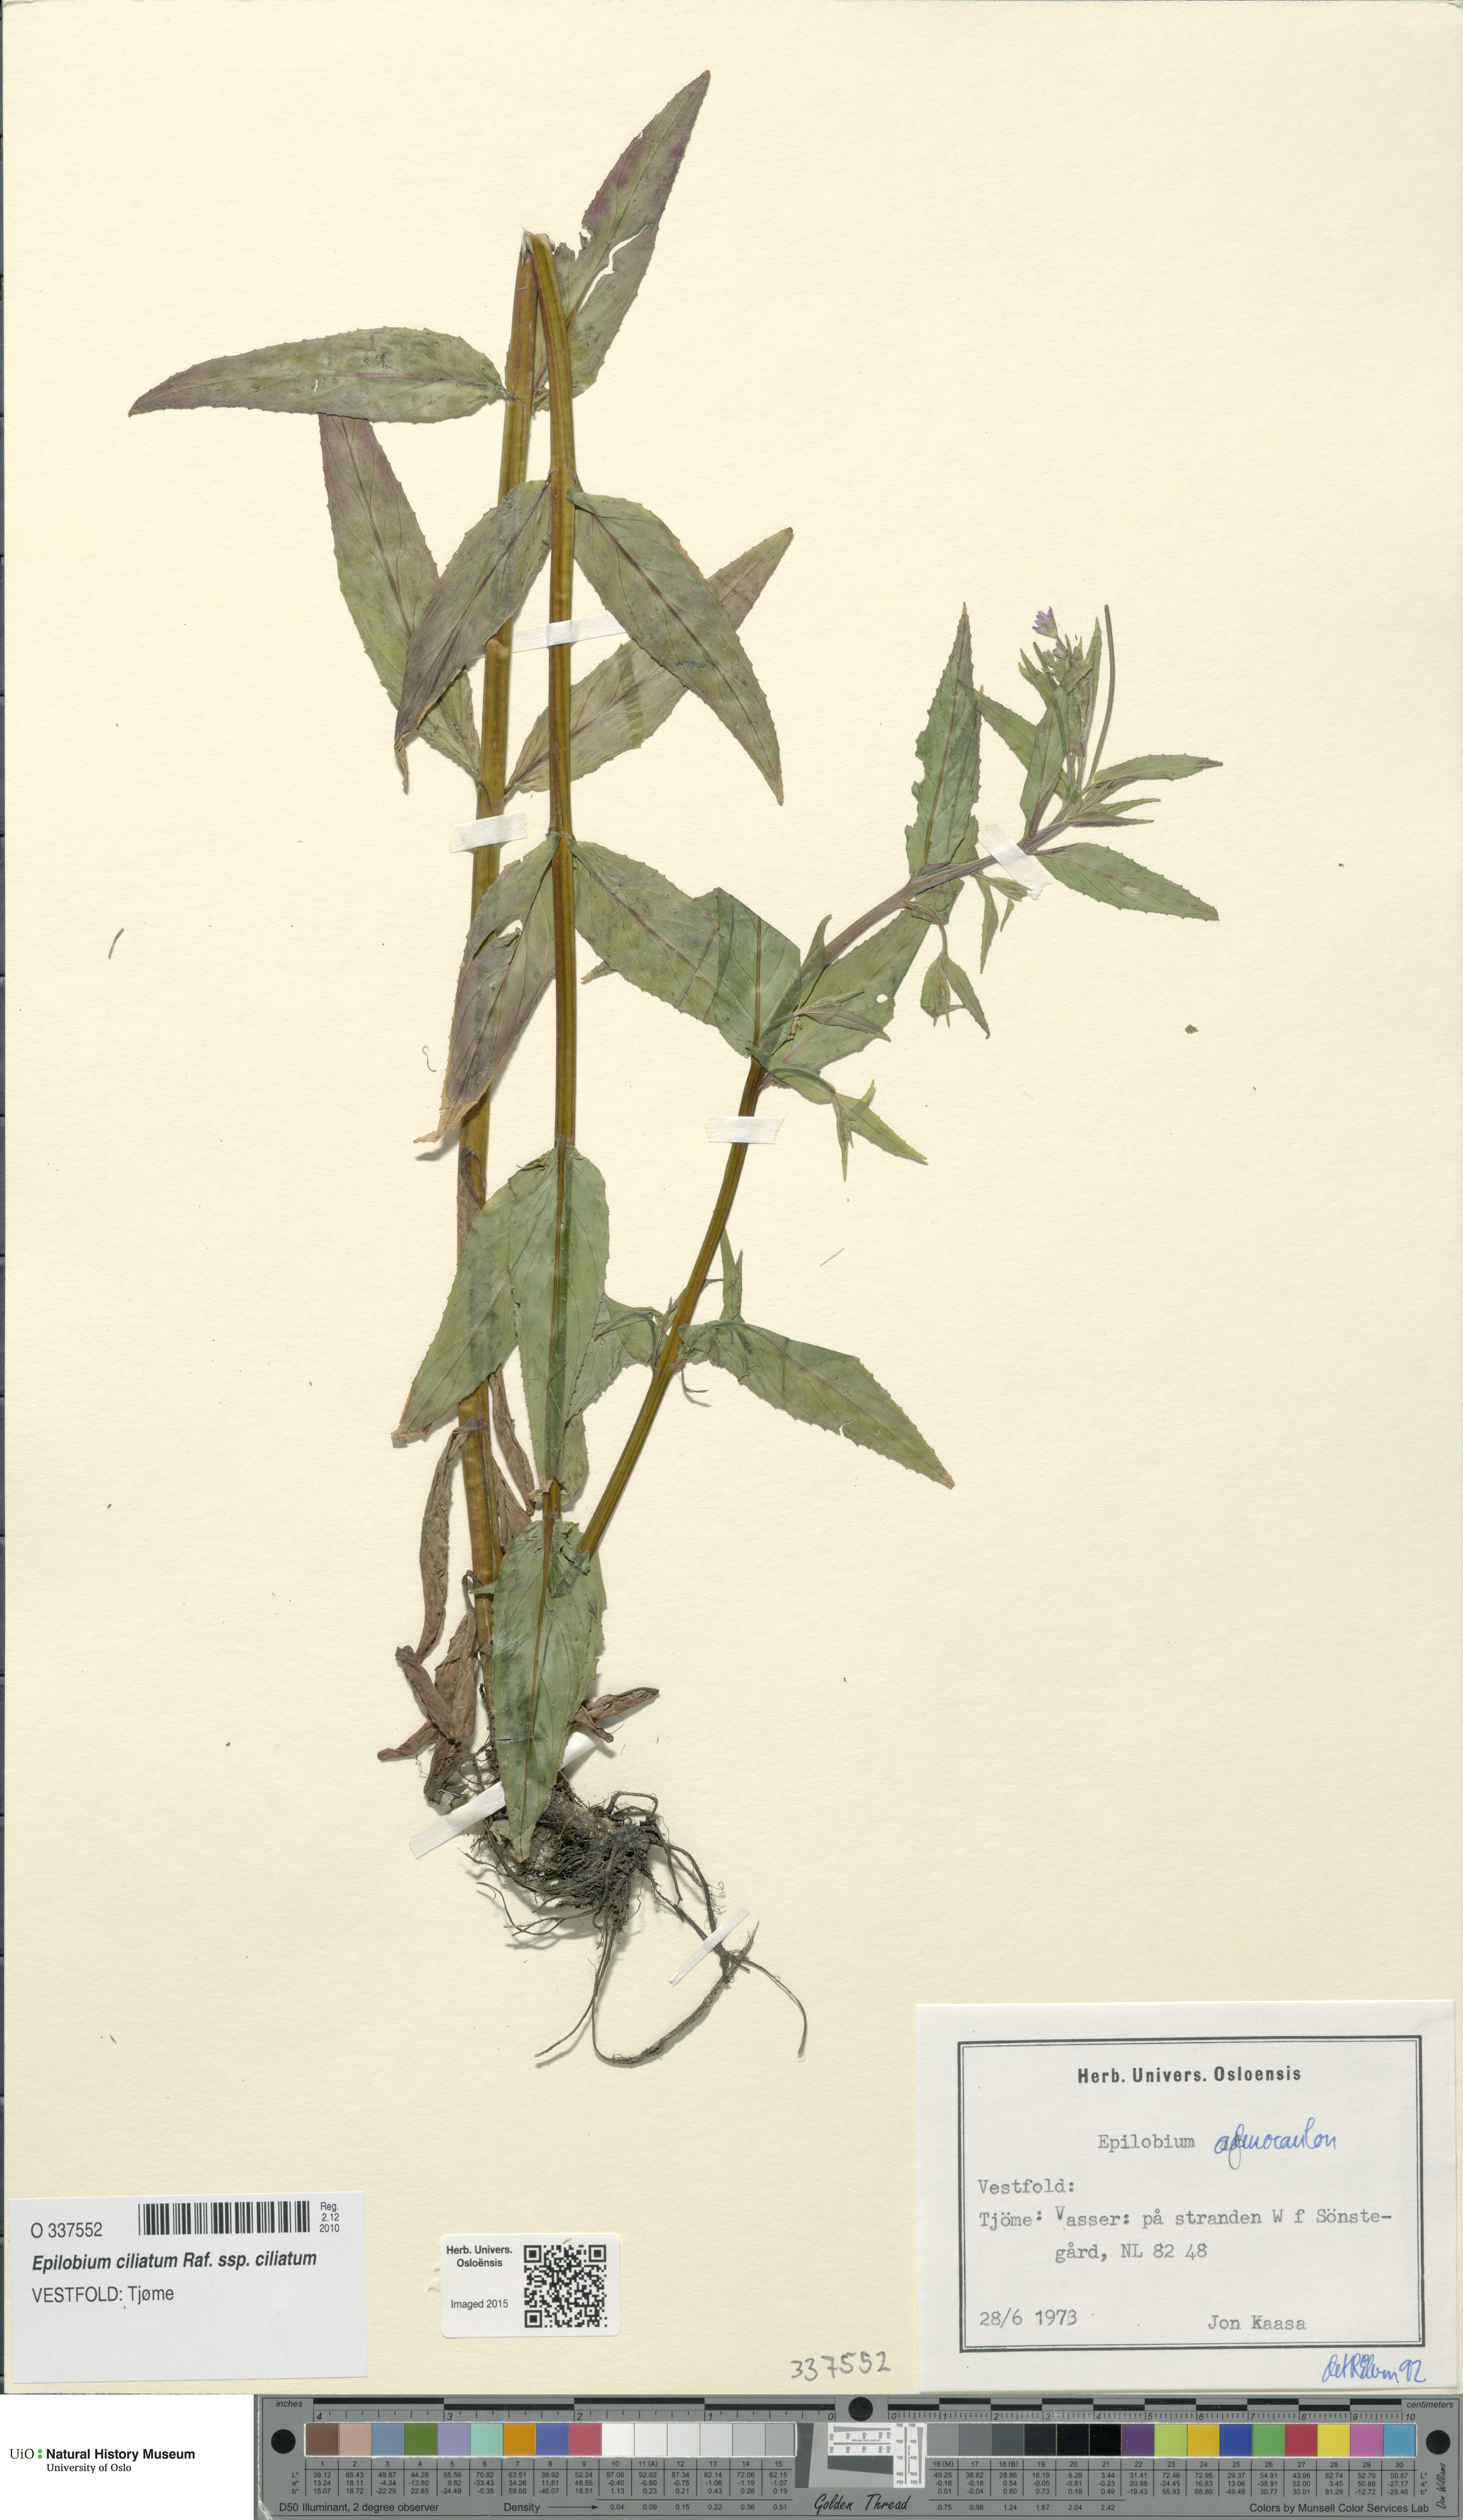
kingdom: Plantae
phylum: Tracheophyta
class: Magnoliopsida
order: Myrtales
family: Onagraceae
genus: Epilobium
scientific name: Epilobium ciliatum
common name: American willowherb
